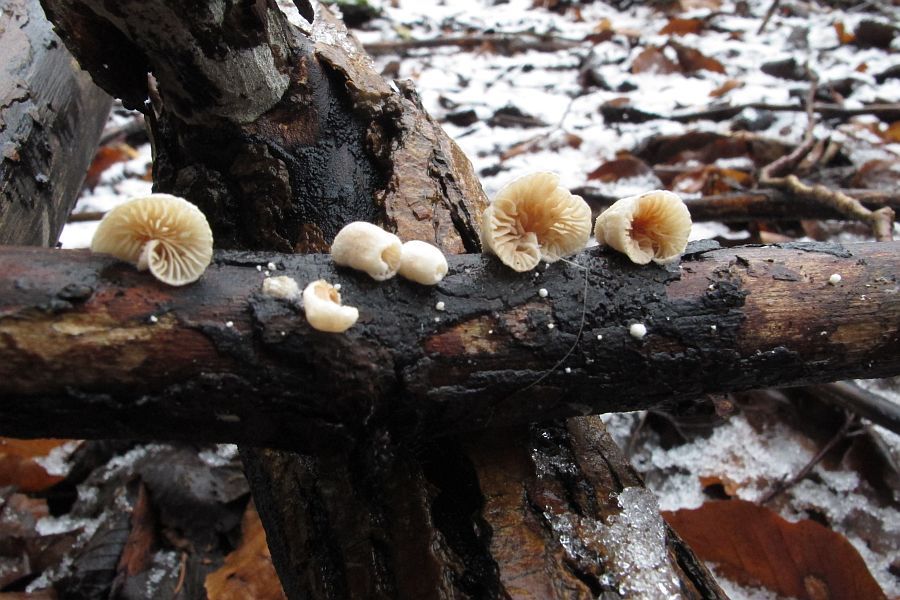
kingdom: Fungi
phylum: Basidiomycota
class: Agaricomycetes
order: Agaricales
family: Crepidotaceae
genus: Crepidotus
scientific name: Crepidotus cesatii
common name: almindelig muslingesvamp
